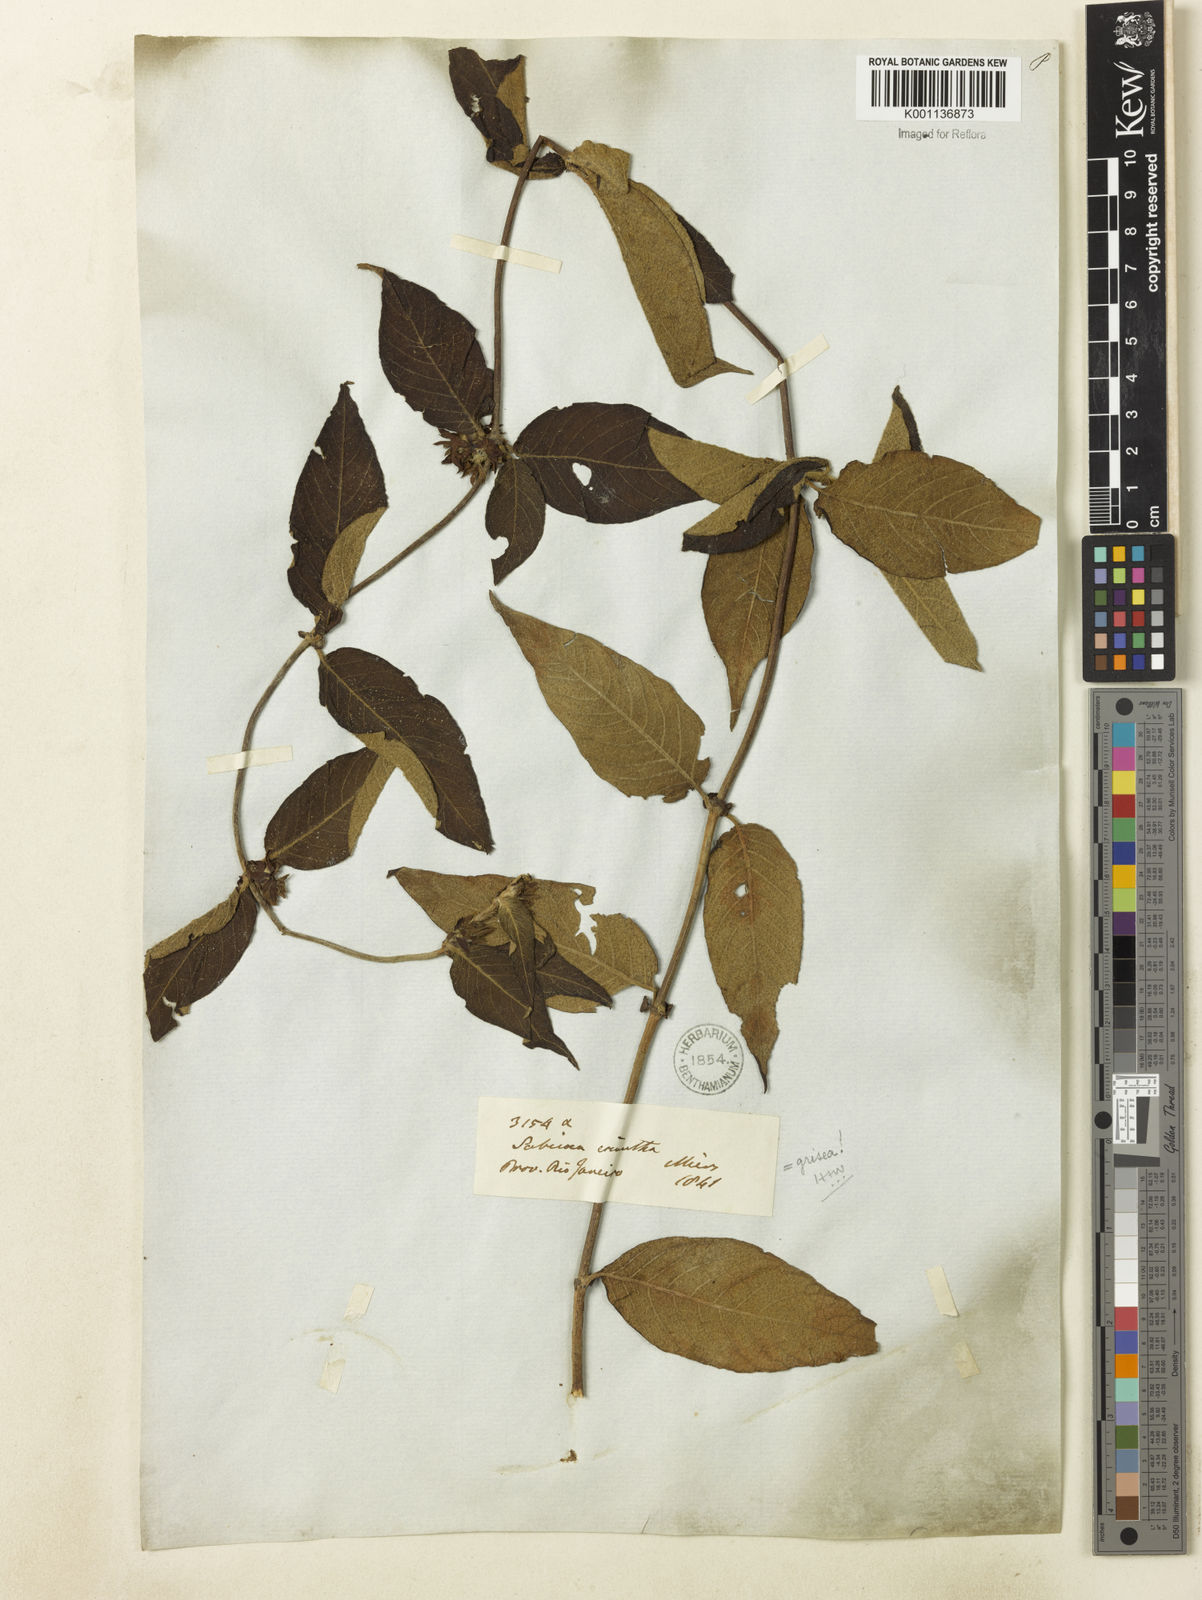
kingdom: Plantae
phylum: Tracheophyta
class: Magnoliopsida
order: Gentianales
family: Rubiaceae
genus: Sabicea
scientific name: Sabicea grisea
